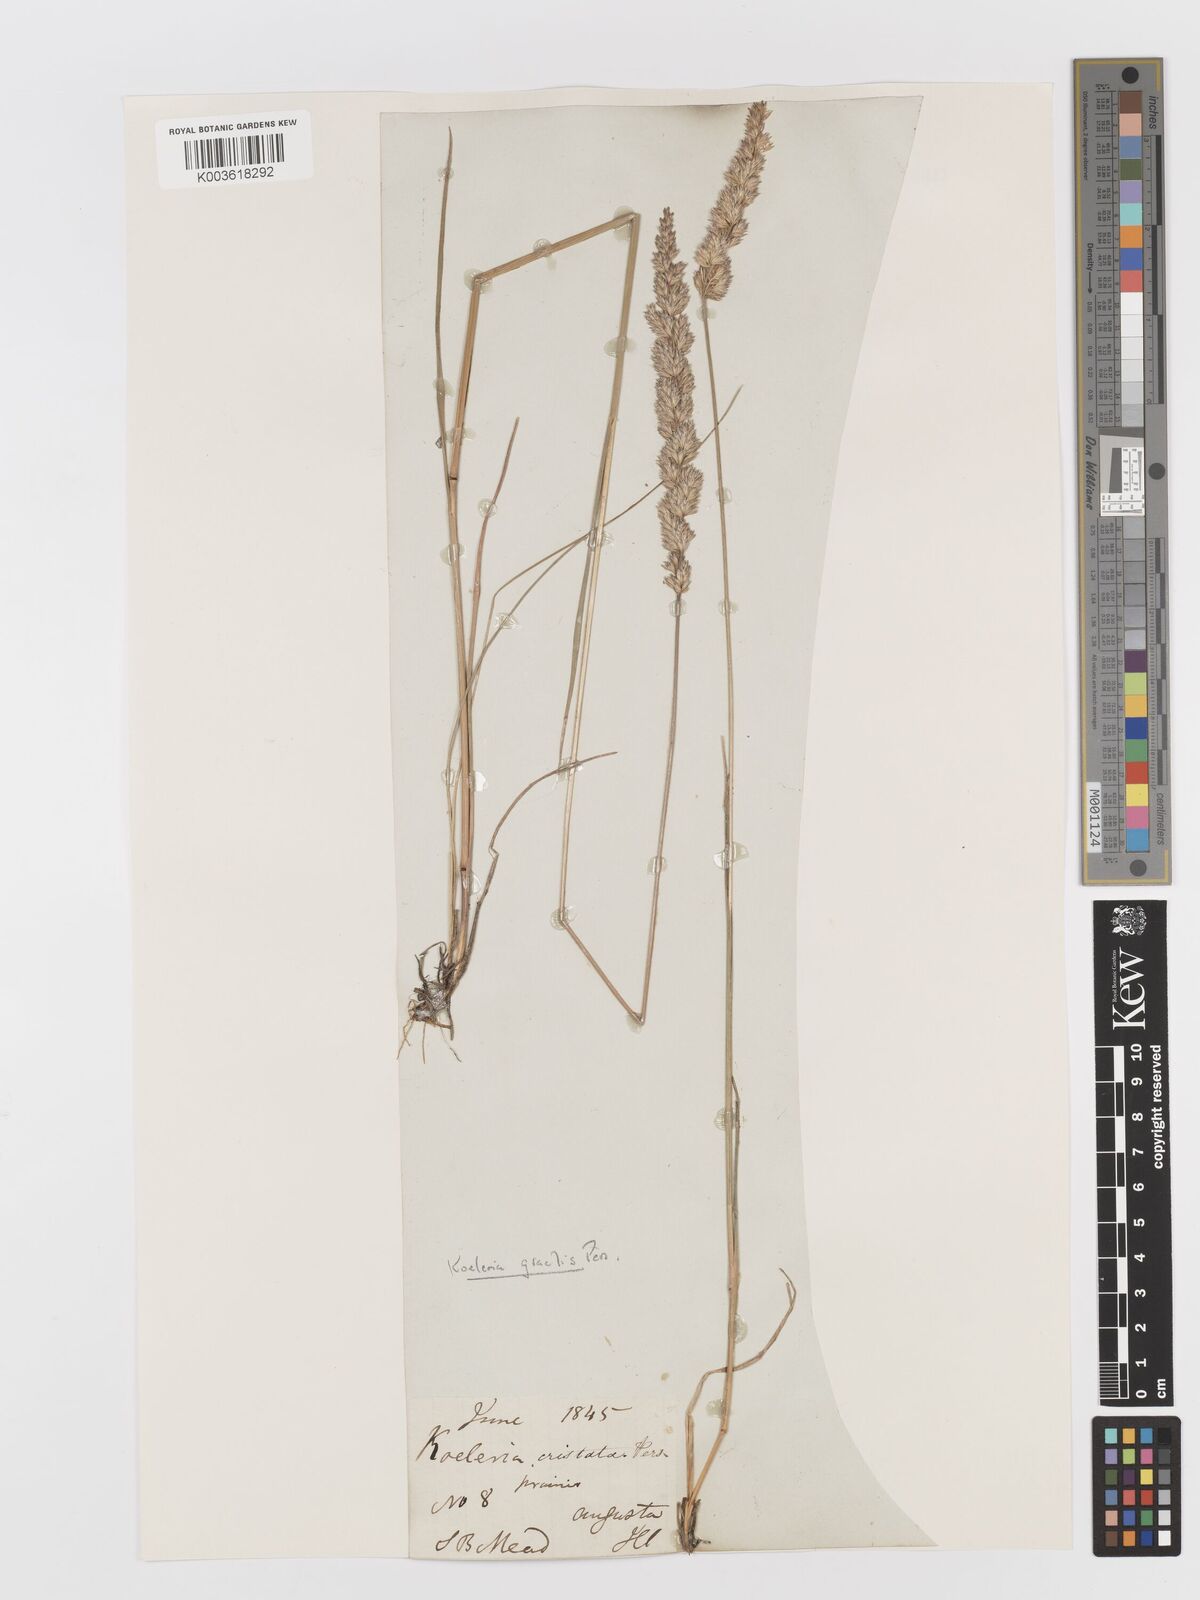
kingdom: Plantae
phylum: Tracheophyta
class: Liliopsida
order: Poales
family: Poaceae
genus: Koeleria
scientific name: Koeleria macrantha
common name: Crested hair-grass
